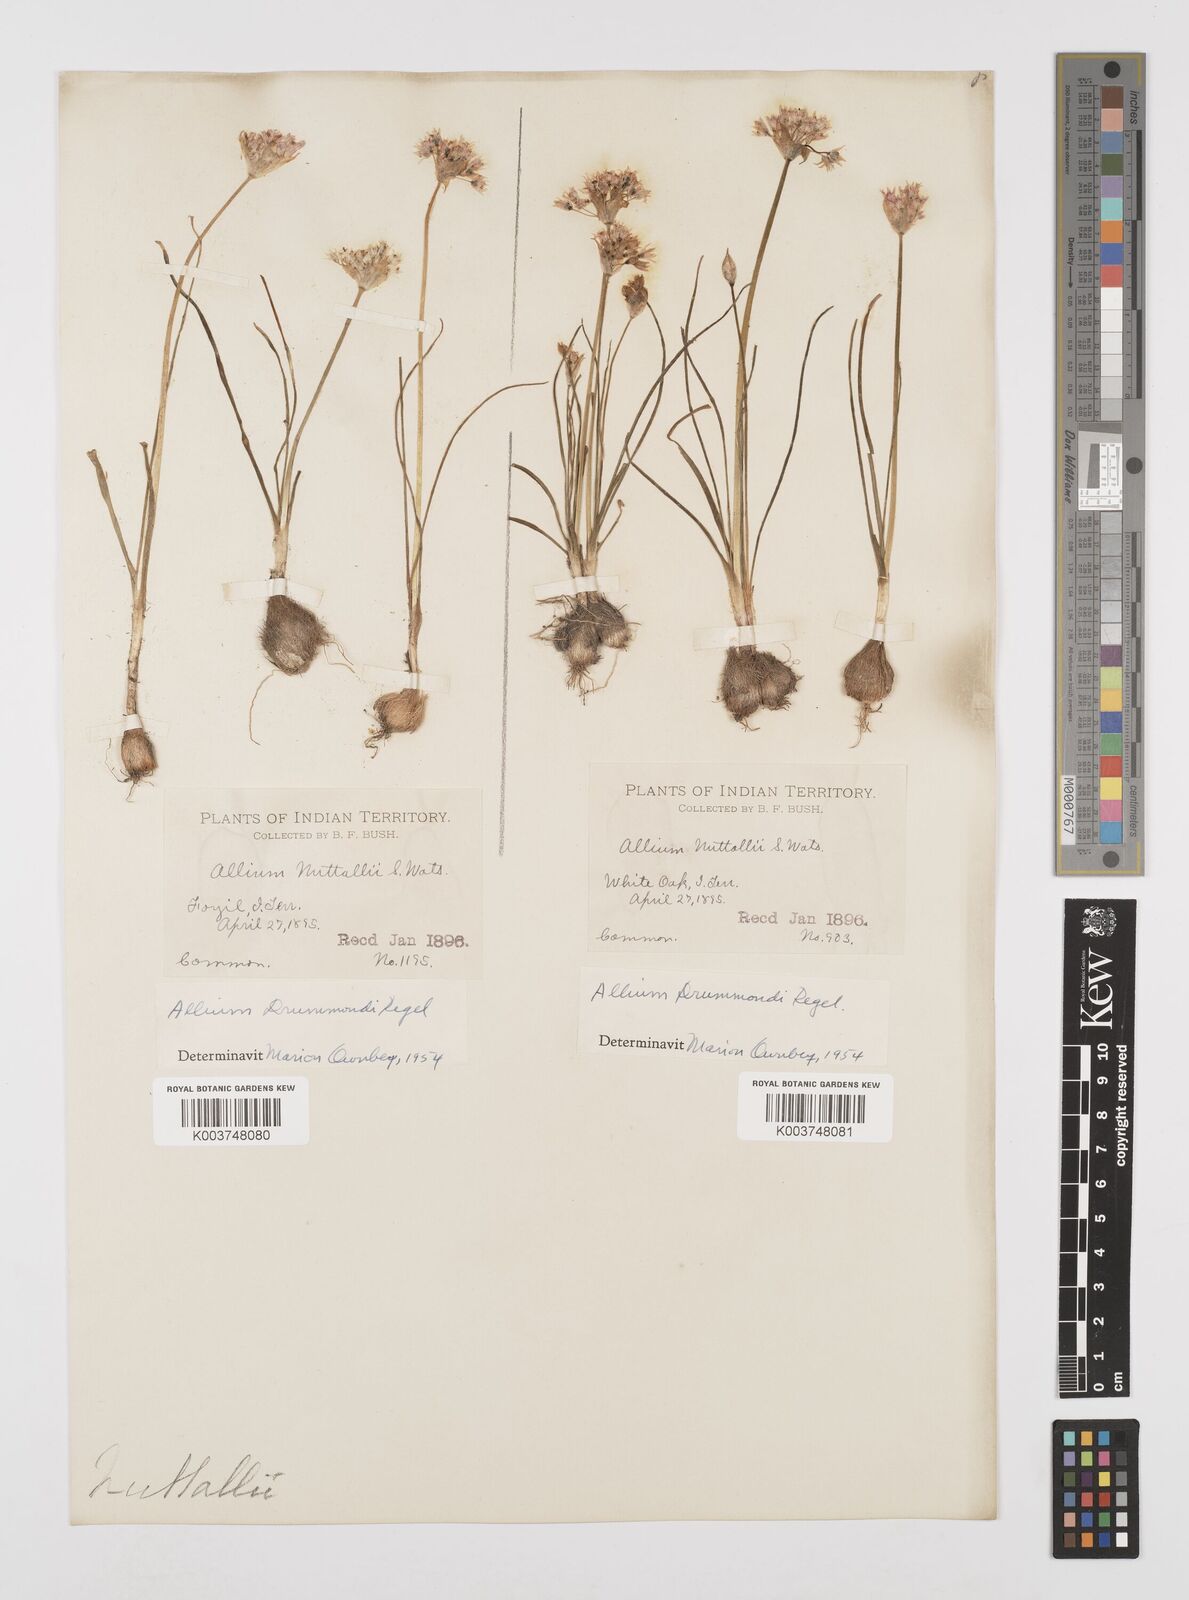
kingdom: Plantae
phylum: Tracheophyta
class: Liliopsida
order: Asparagales
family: Amaryllidaceae
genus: Allium
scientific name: Allium drummondii
